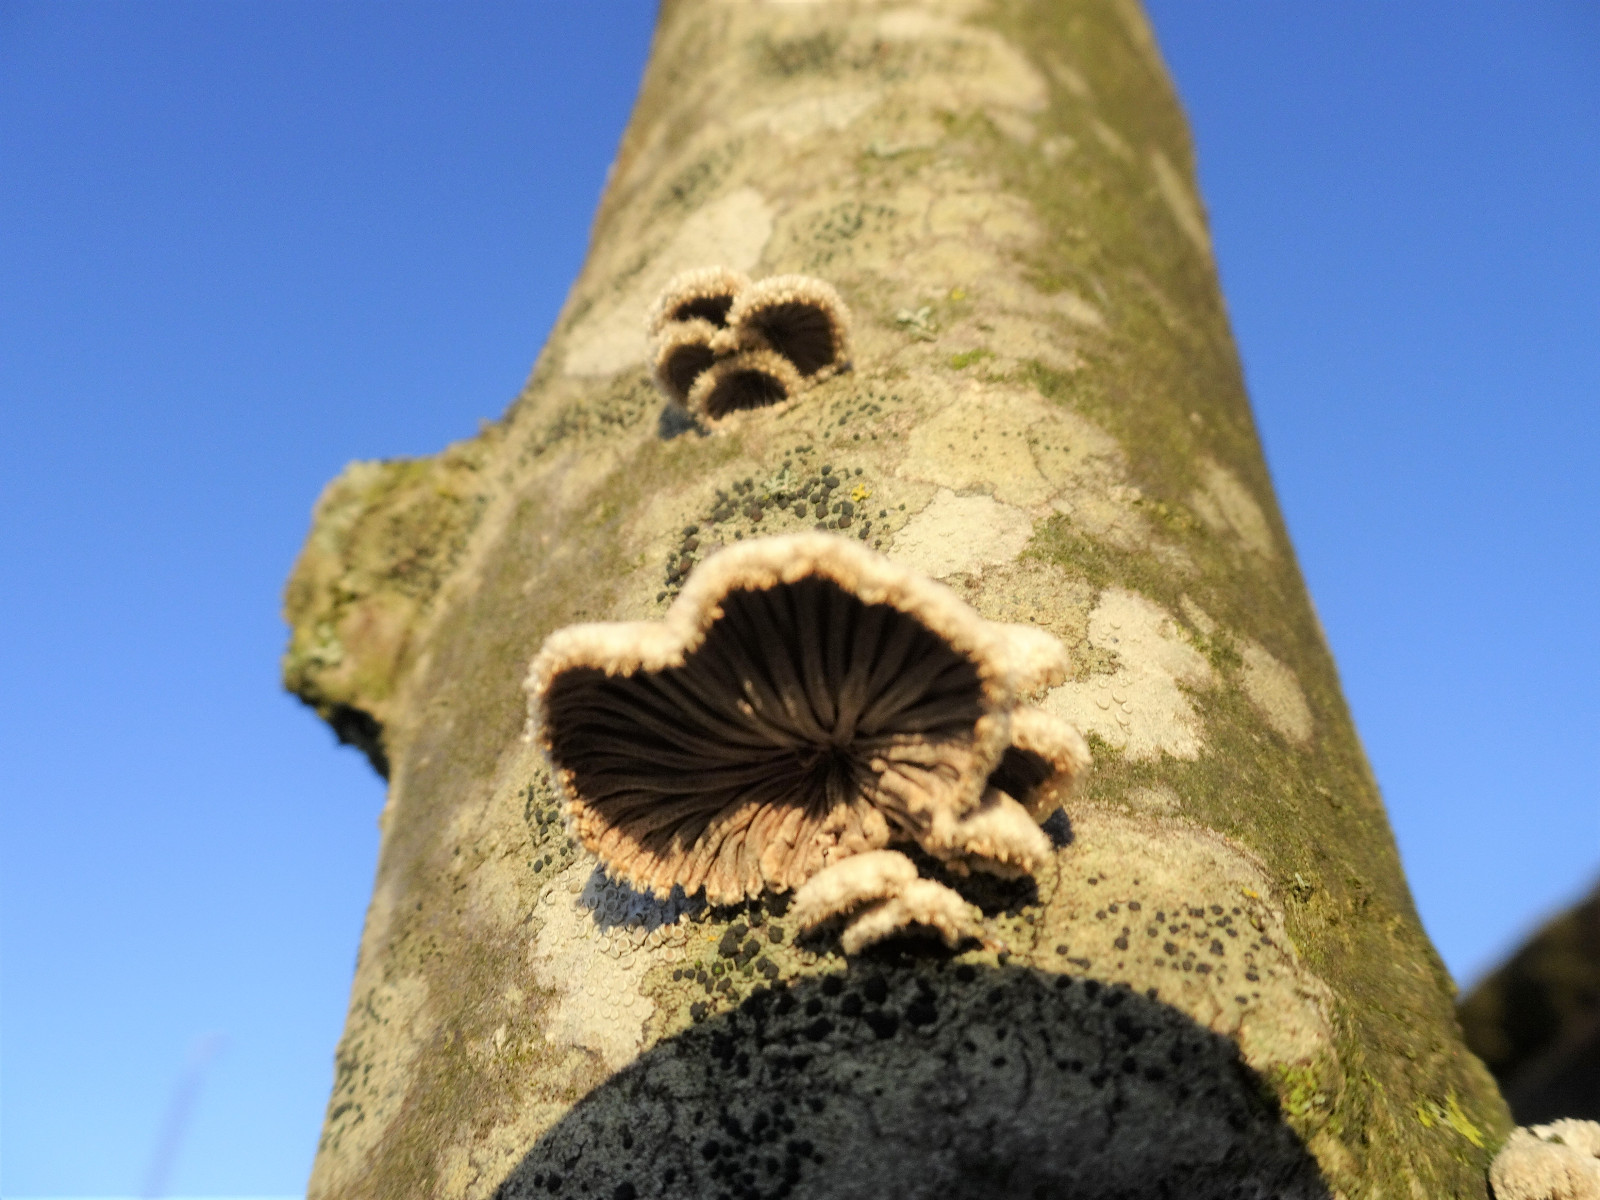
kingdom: Fungi
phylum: Basidiomycota
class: Agaricomycetes
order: Agaricales
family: Schizophyllaceae
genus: Schizophyllum
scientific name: Schizophyllum commune
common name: kløvblad
